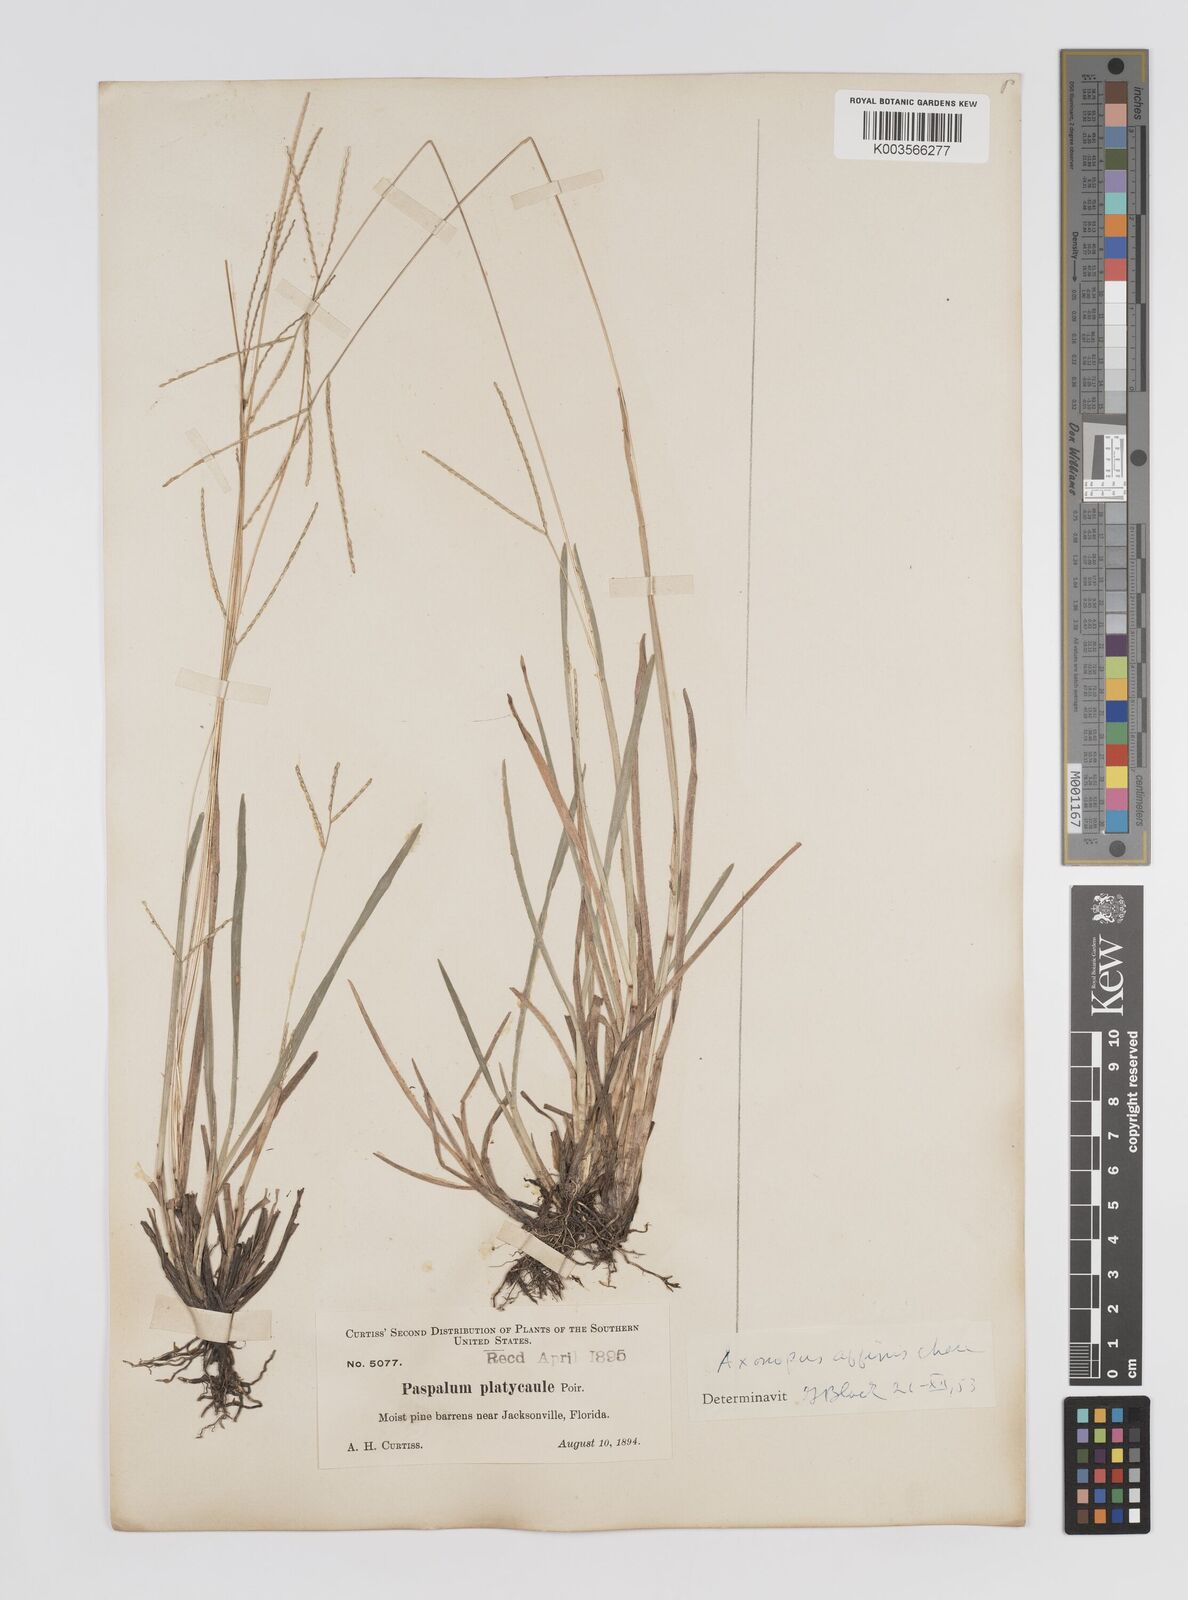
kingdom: Plantae
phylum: Tracheophyta
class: Liliopsida
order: Poales
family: Poaceae
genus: Axonopus
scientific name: Axonopus fissifolius
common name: Common carpetgrass
